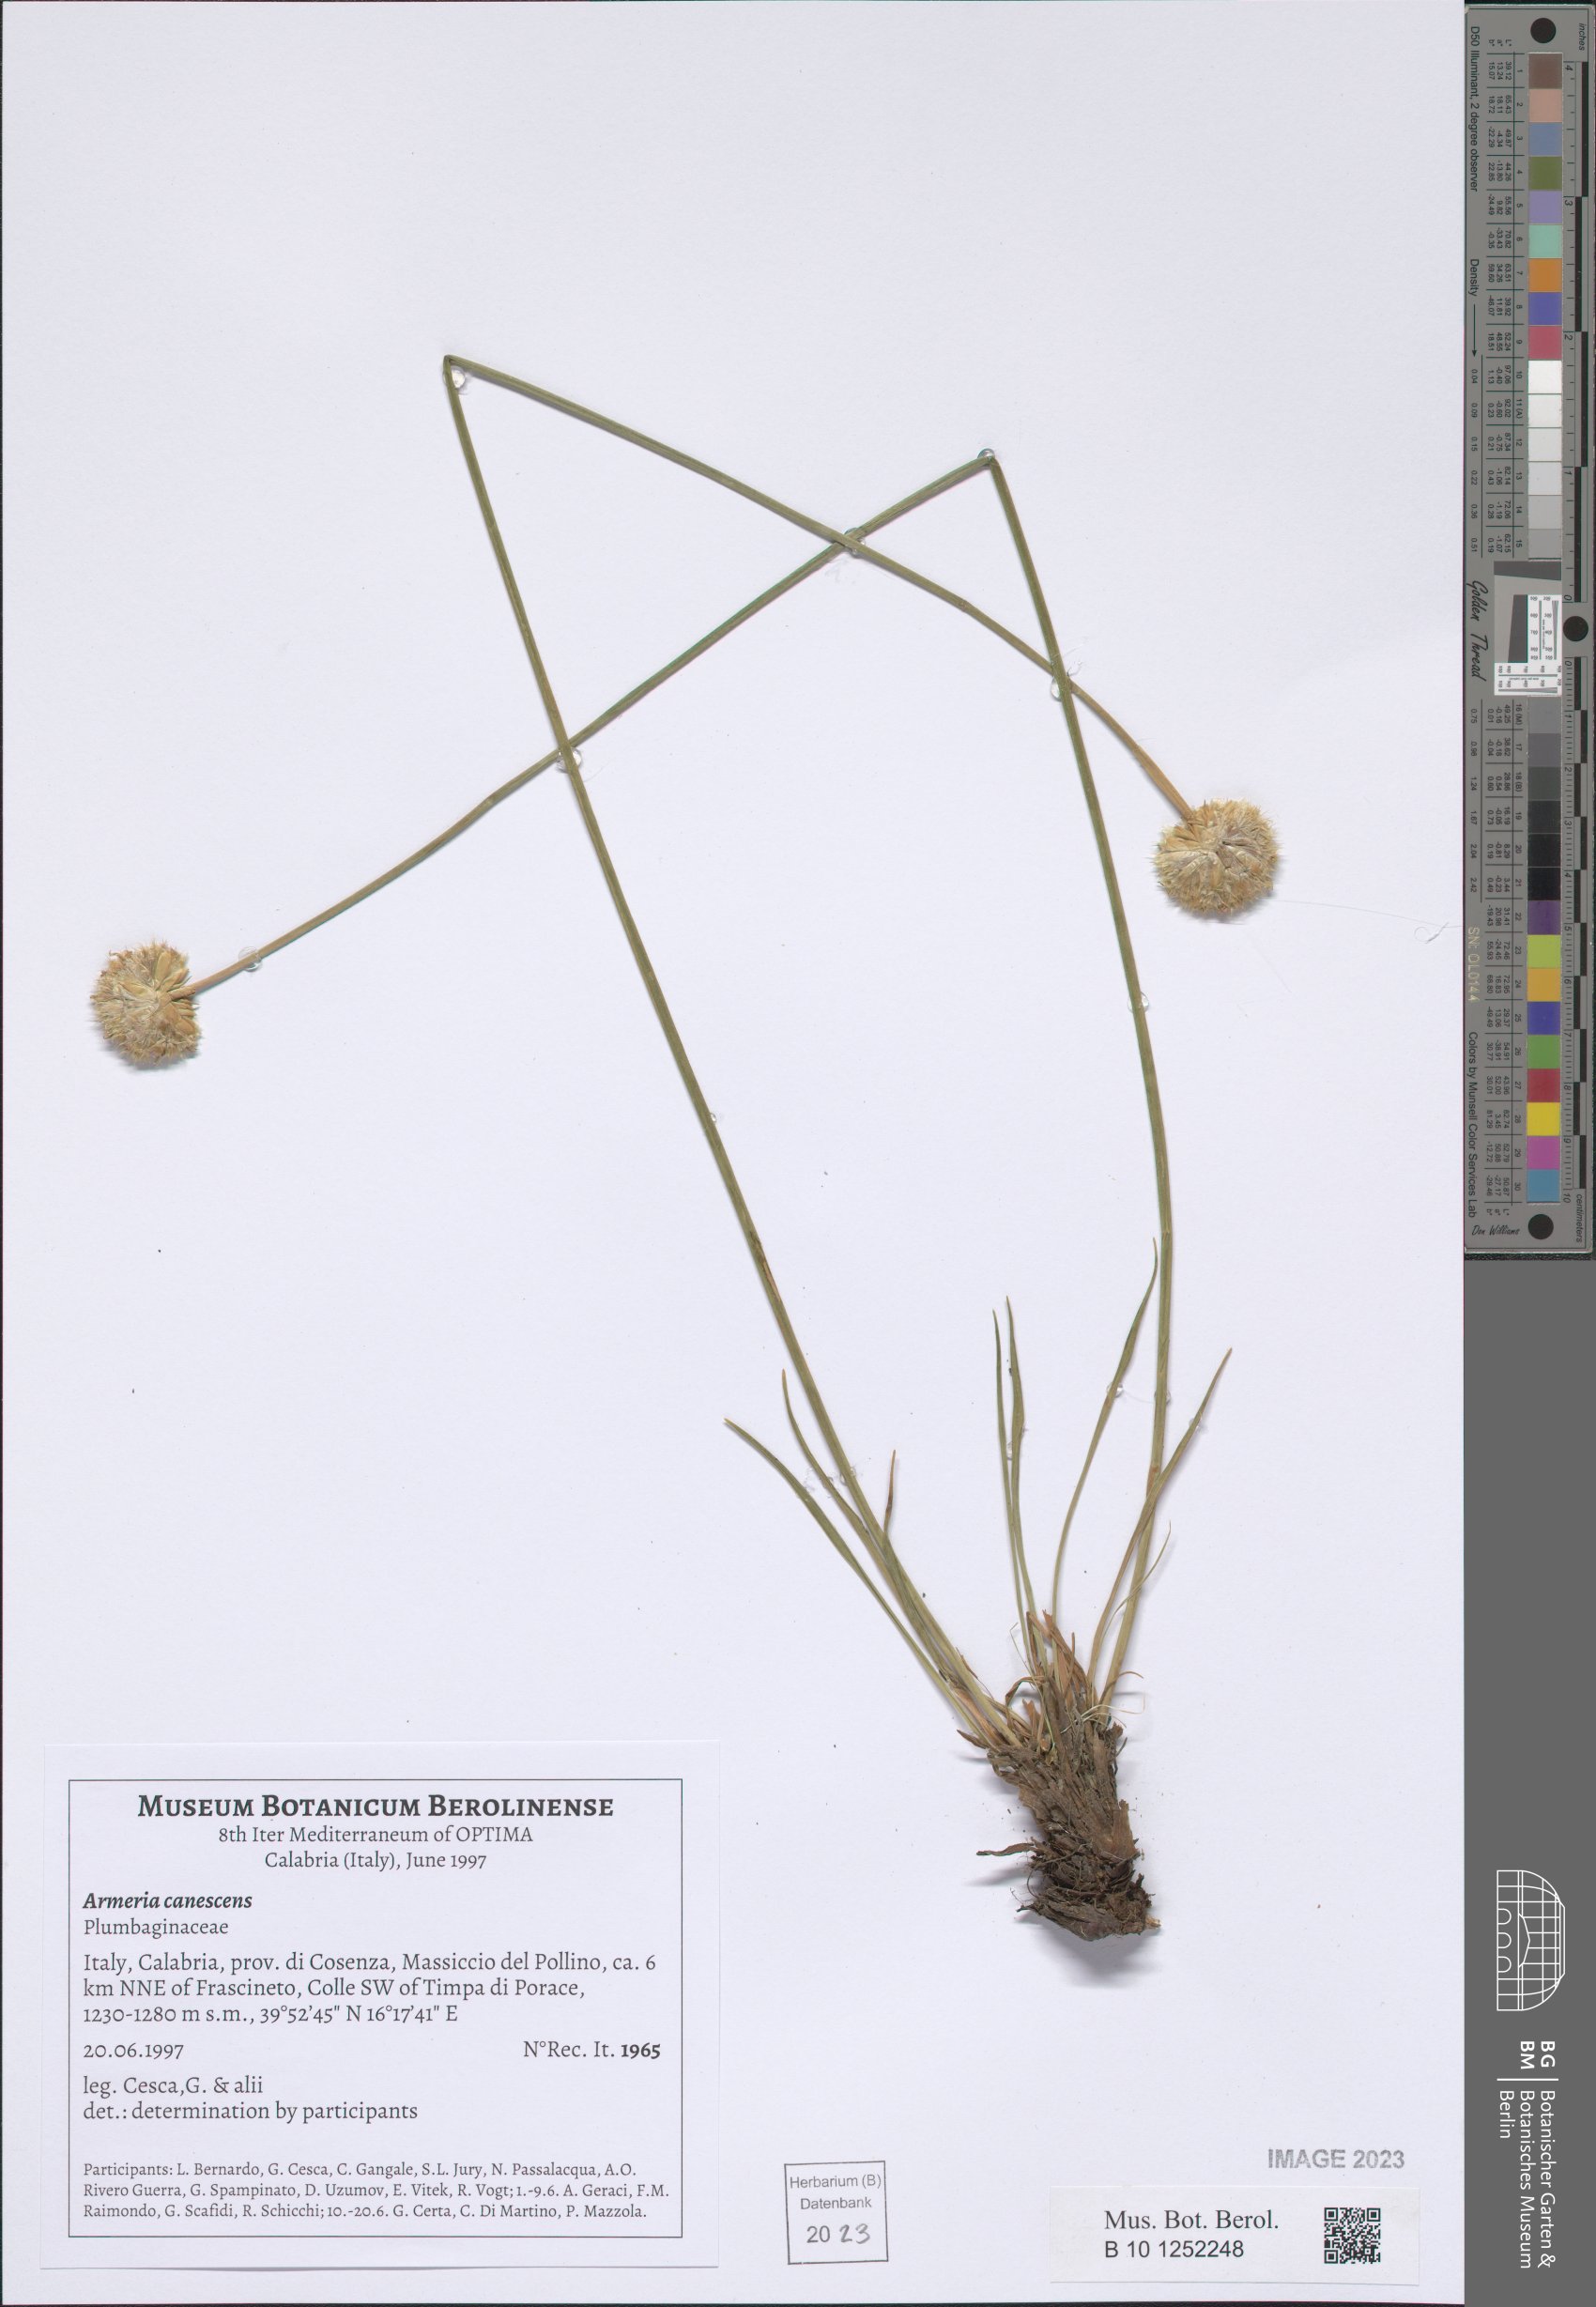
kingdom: Plantae
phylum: Tracheophyta
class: Magnoliopsida
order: Caryophyllales
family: Plumbaginaceae
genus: Armeria
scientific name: Armeria canescens
